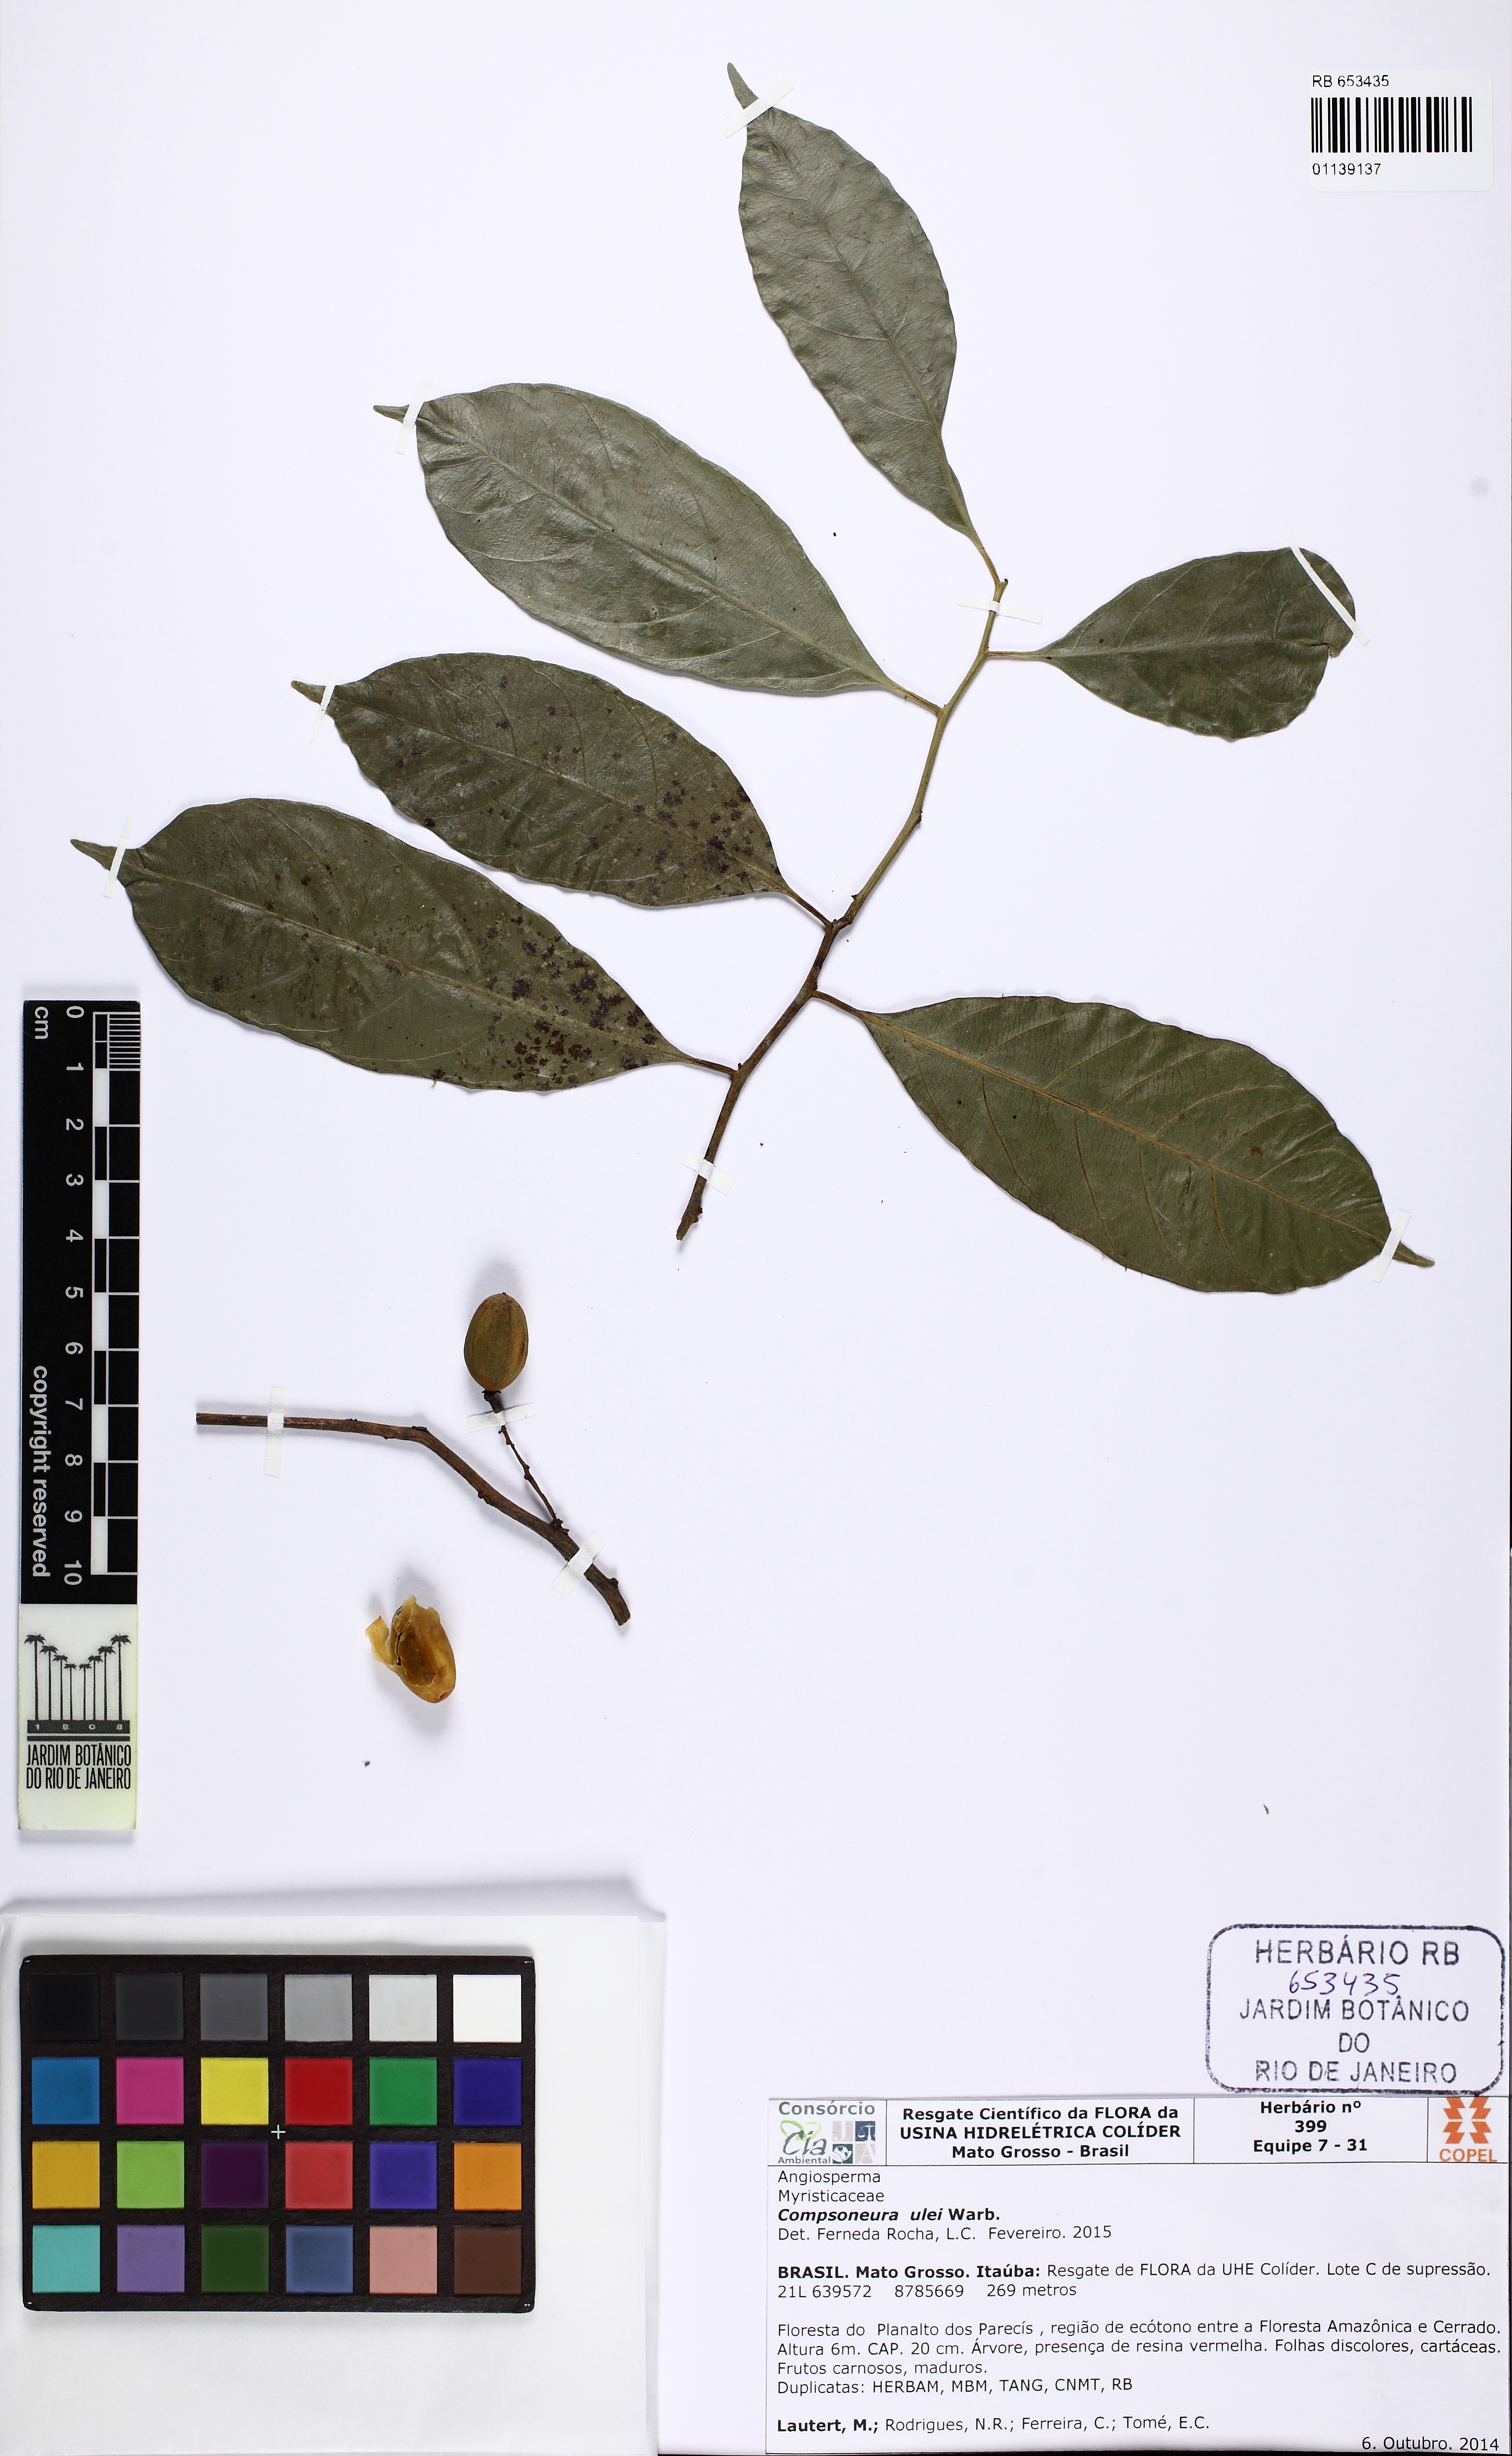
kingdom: Plantae
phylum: Tracheophyta
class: Magnoliopsida
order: Magnoliales
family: Myristicaceae
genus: Compsoneura
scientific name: Compsoneura ulei
